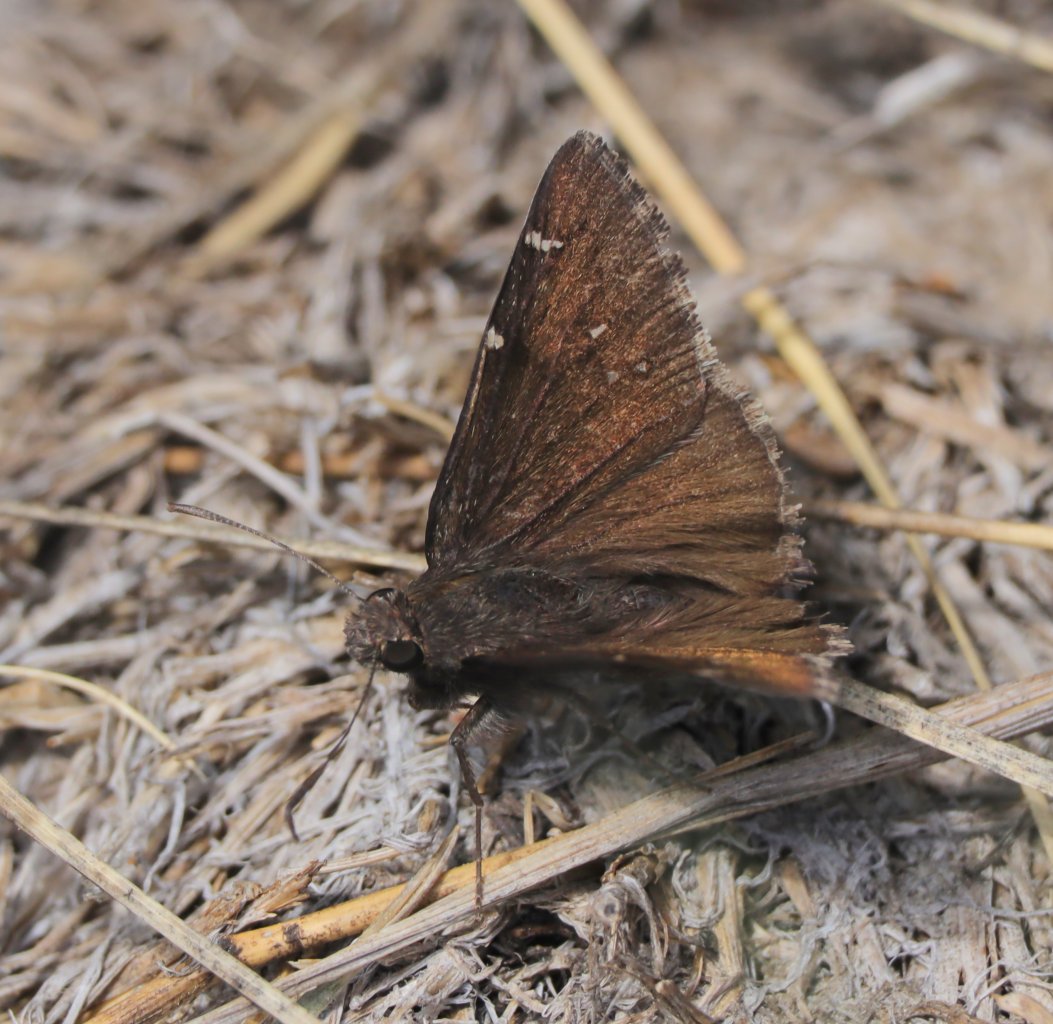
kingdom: Animalia
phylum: Arthropoda
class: Insecta
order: Lepidoptera
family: Hesperiidae
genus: Autochton
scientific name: Autochton
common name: Northern Cloudywing
